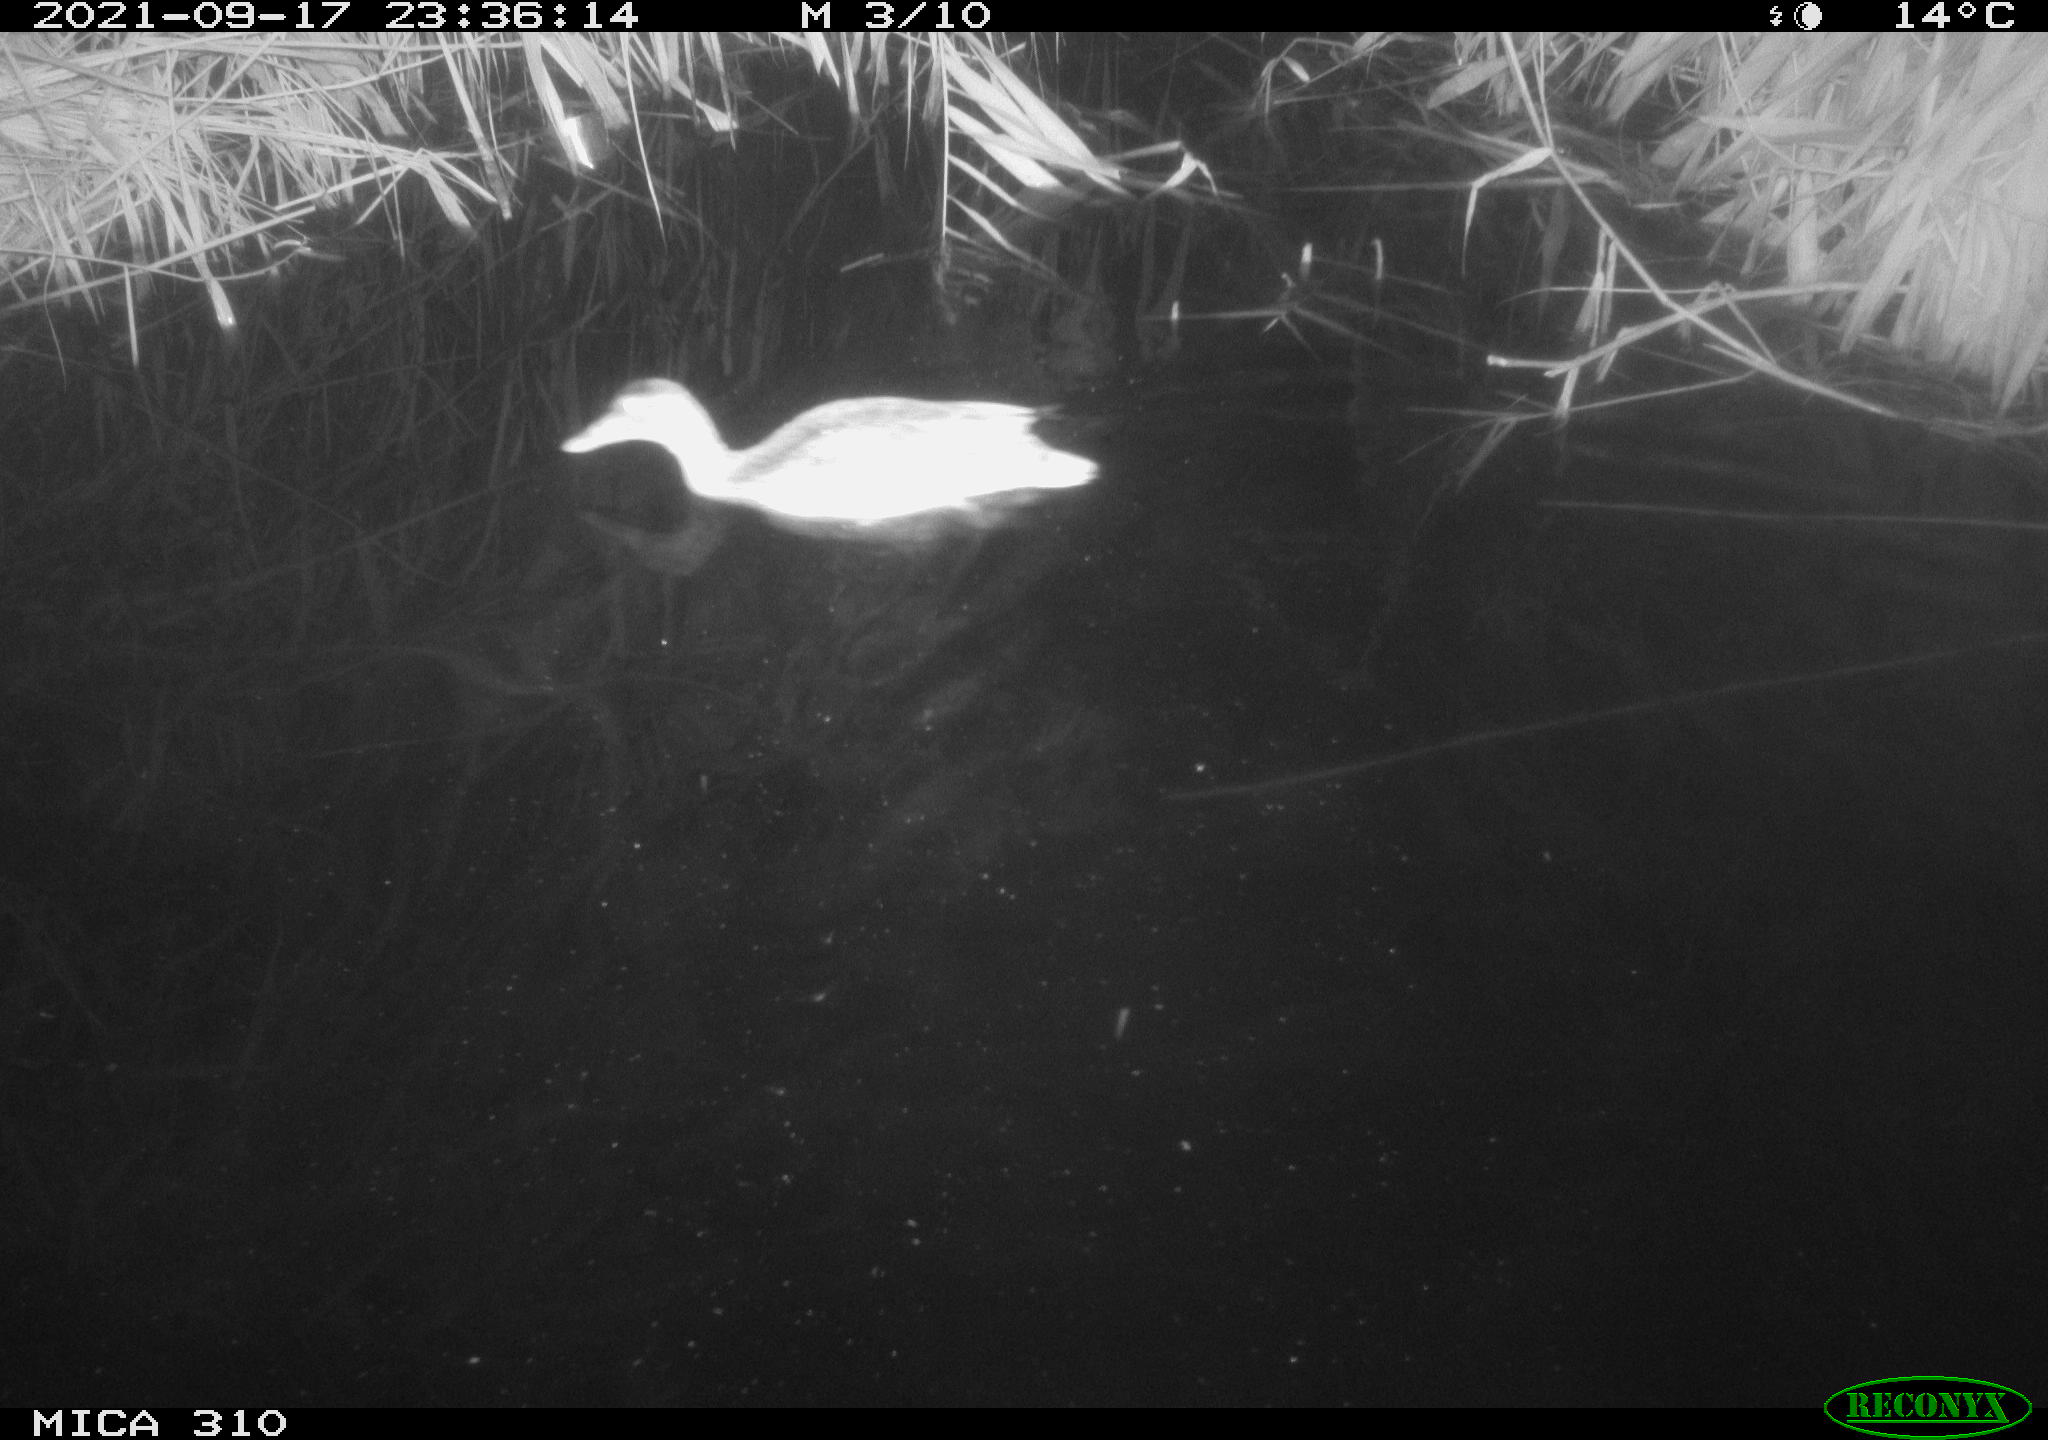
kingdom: Animalia
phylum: Chordata
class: Aves
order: Anseriformes
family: Anatidae
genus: Mareca
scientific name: Mareca strepera
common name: Gadwall
